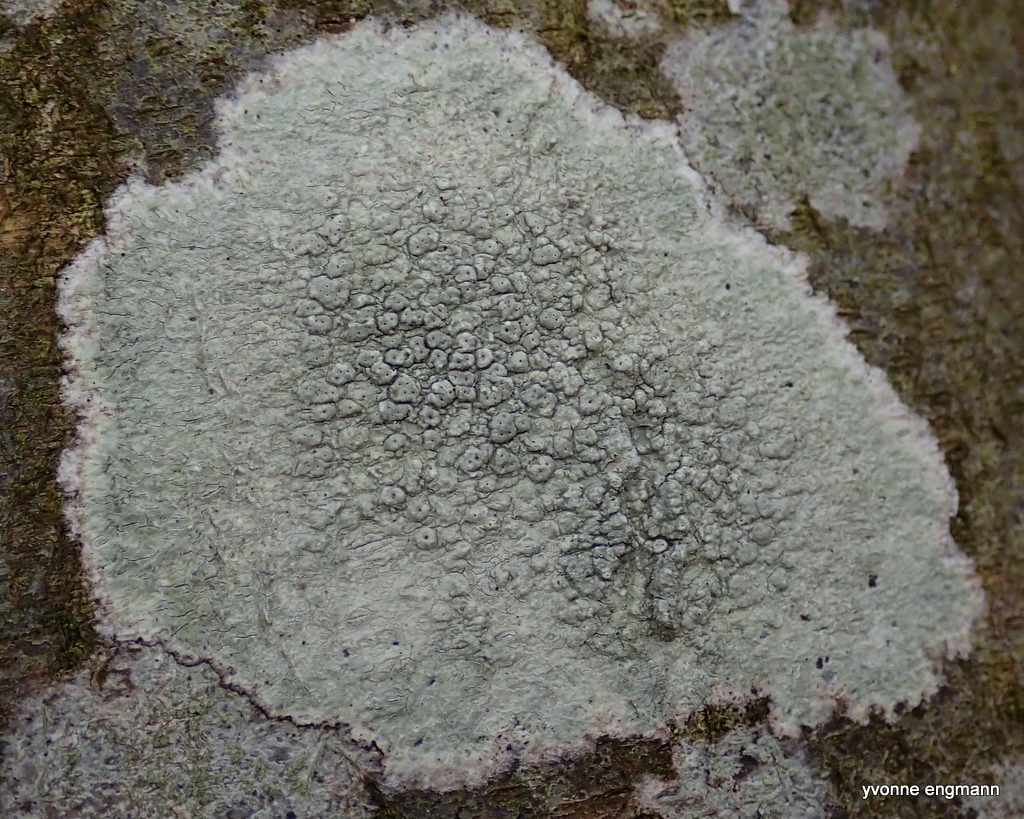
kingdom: Fungi
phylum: Ascomycota
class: Lecanoromycetes
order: Pertusariales
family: Pertusariaceae
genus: Pertusaria
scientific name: Pertusaria pertusa
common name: almindelig prikvortelav
